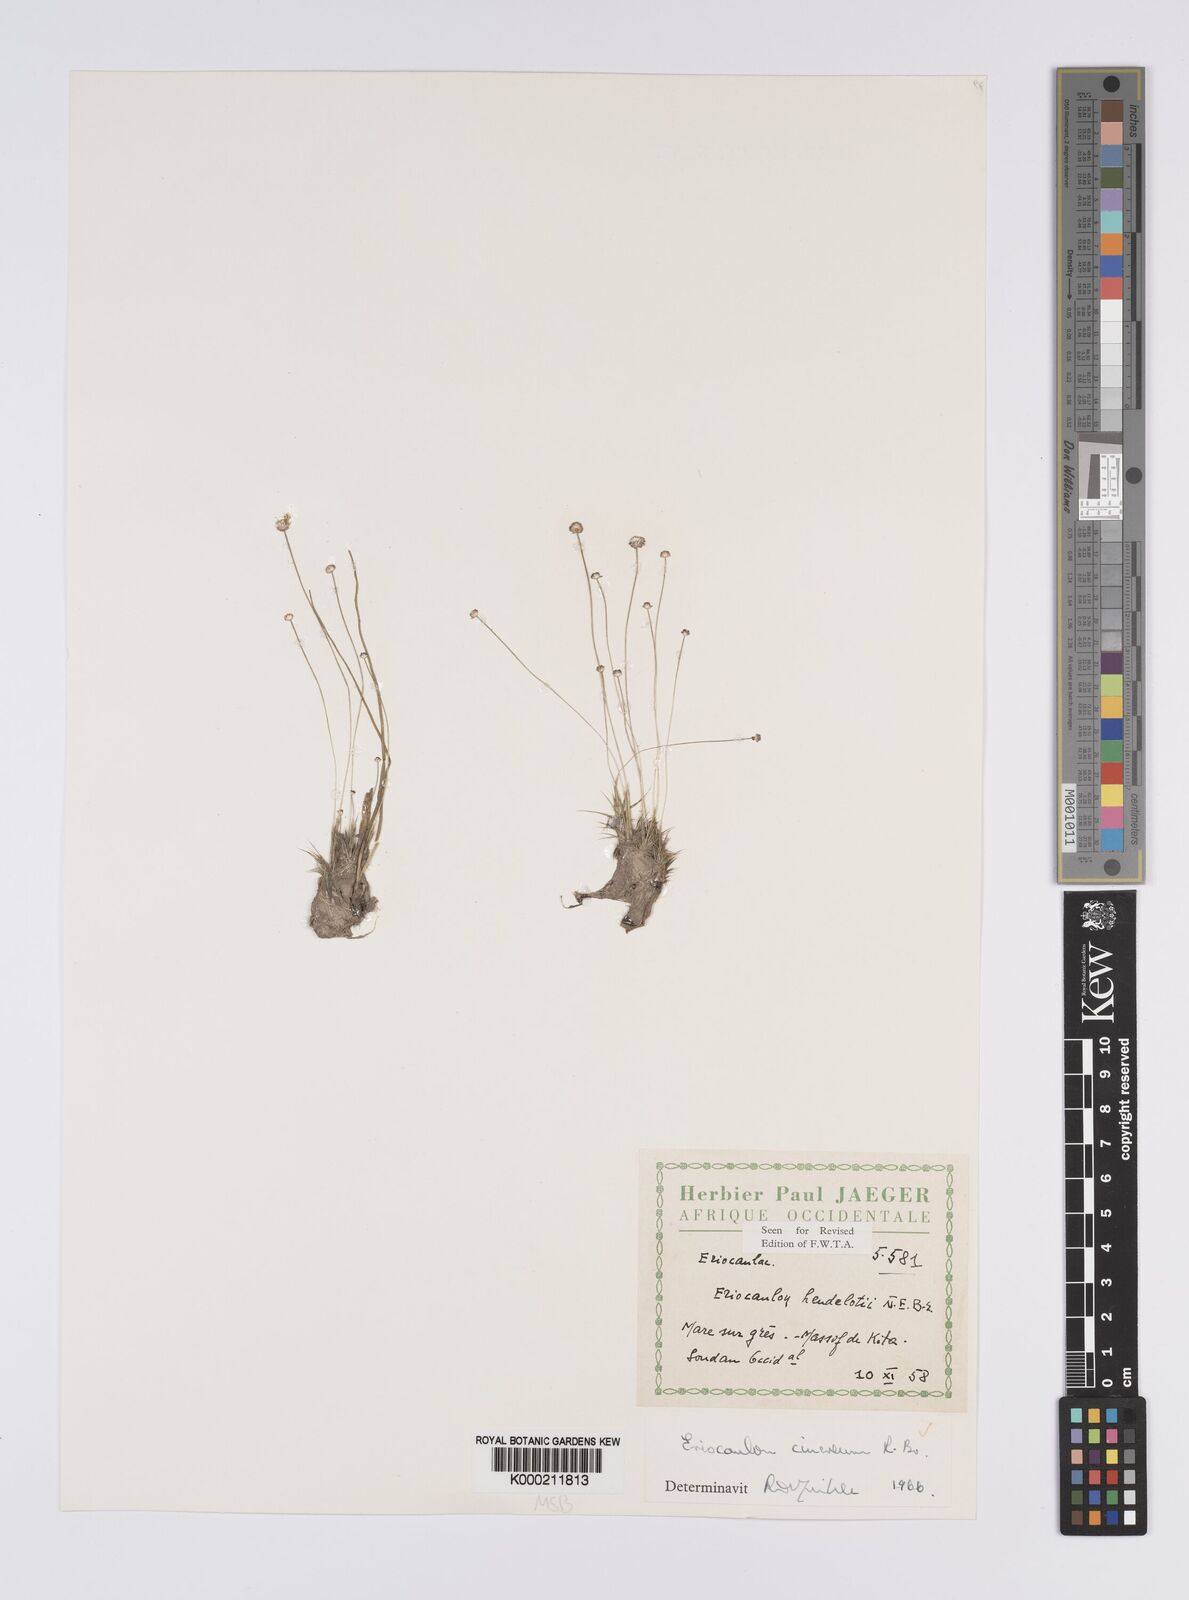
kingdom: Plantae
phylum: Tracheophyta
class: Liliopsida
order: Poales
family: Eriocaulaceae
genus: Eriocaulon
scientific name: Eriocaulon cinereum
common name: Ashy pipewort
